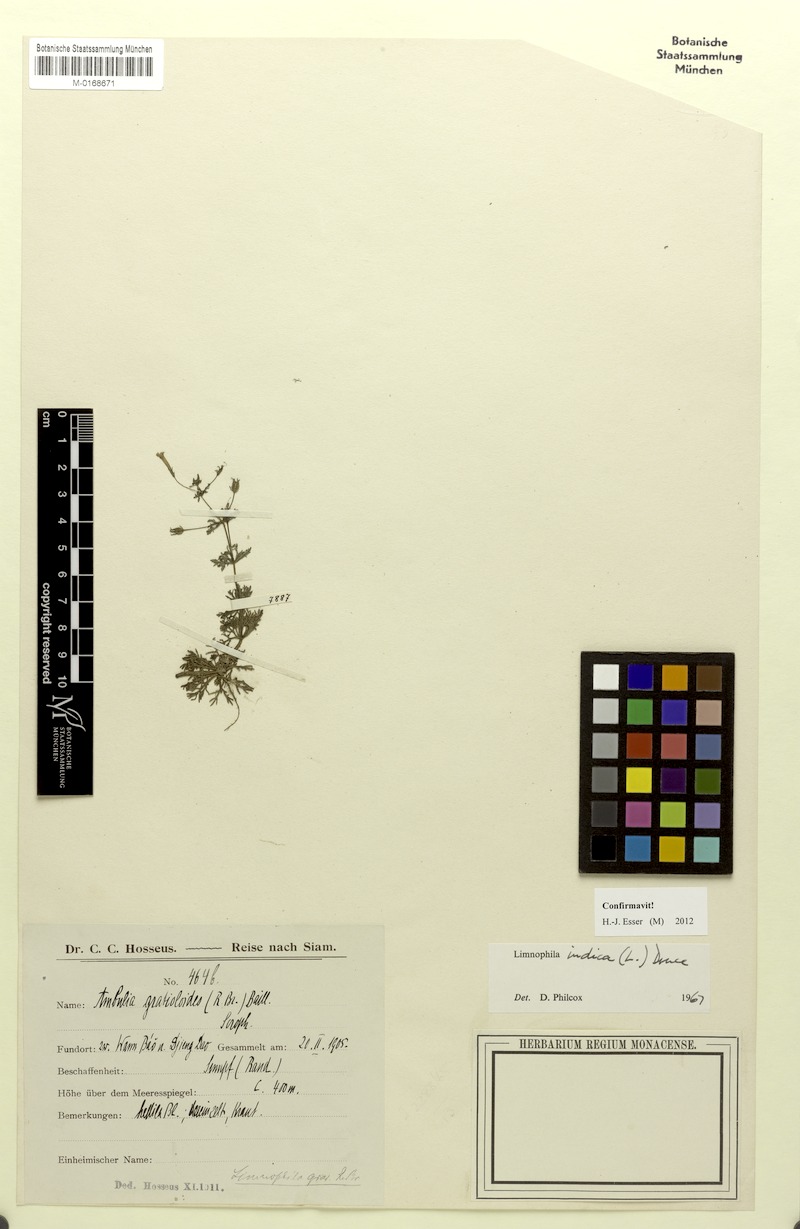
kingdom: Plantae
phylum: Tracheophyta
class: Magnoliopsida
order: Lamiales
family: Plantaginaceae
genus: Limnophila
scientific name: Limnophila indica
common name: Indian marshweed
